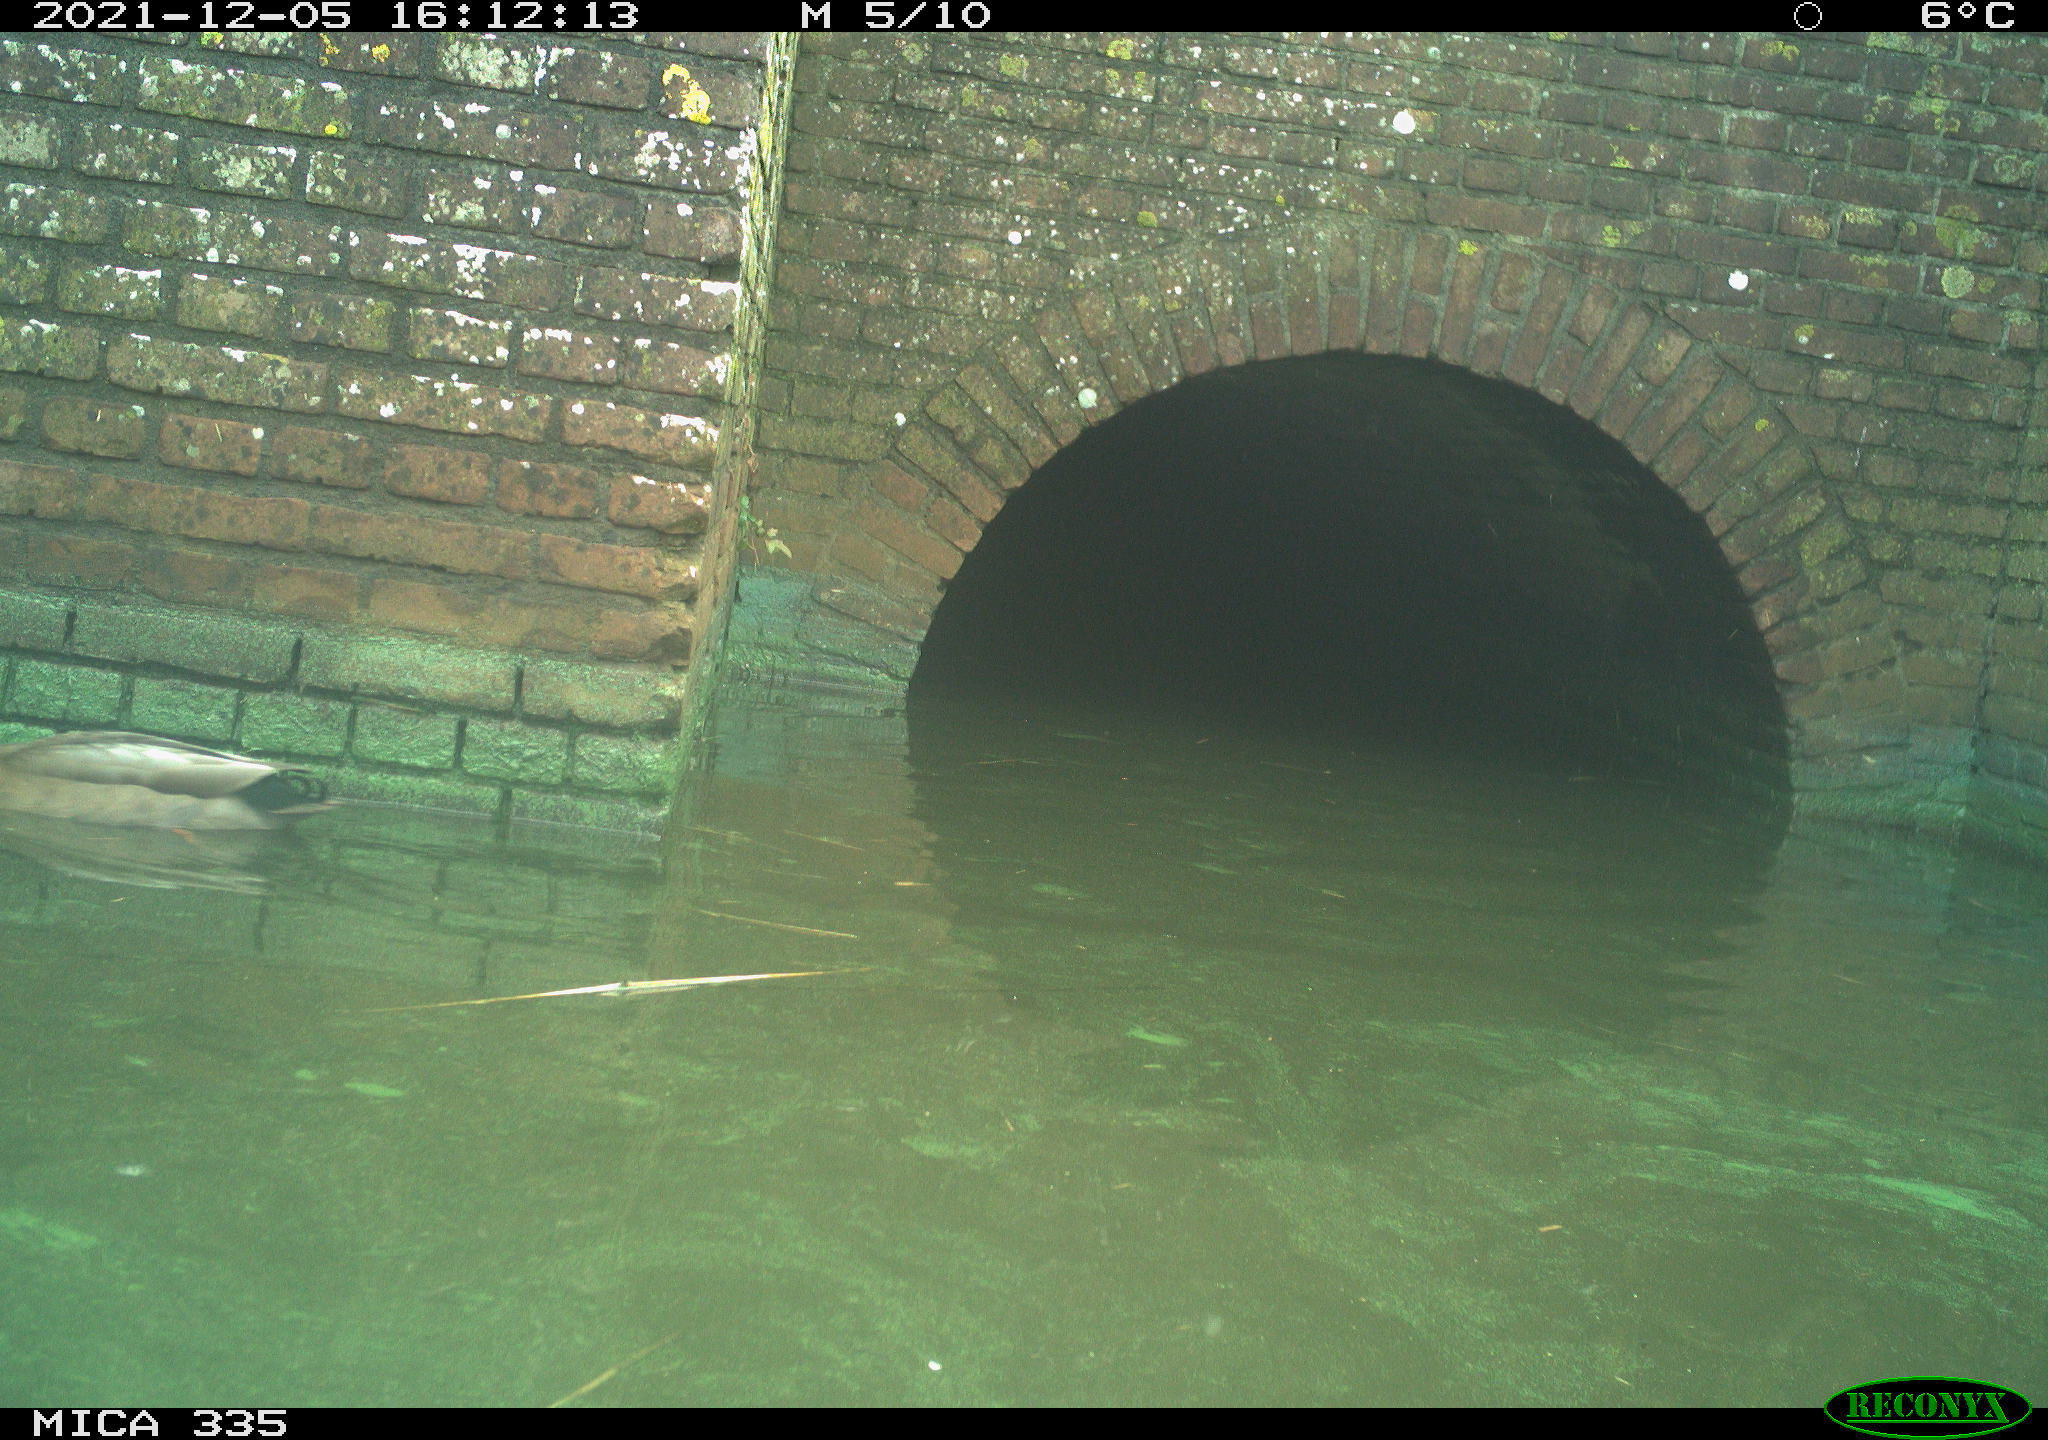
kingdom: Animalia
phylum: Chordata
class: Aves
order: Anseriformes
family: Anatidae
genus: Anas
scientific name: Anas platyrhynchos
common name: Mallard
